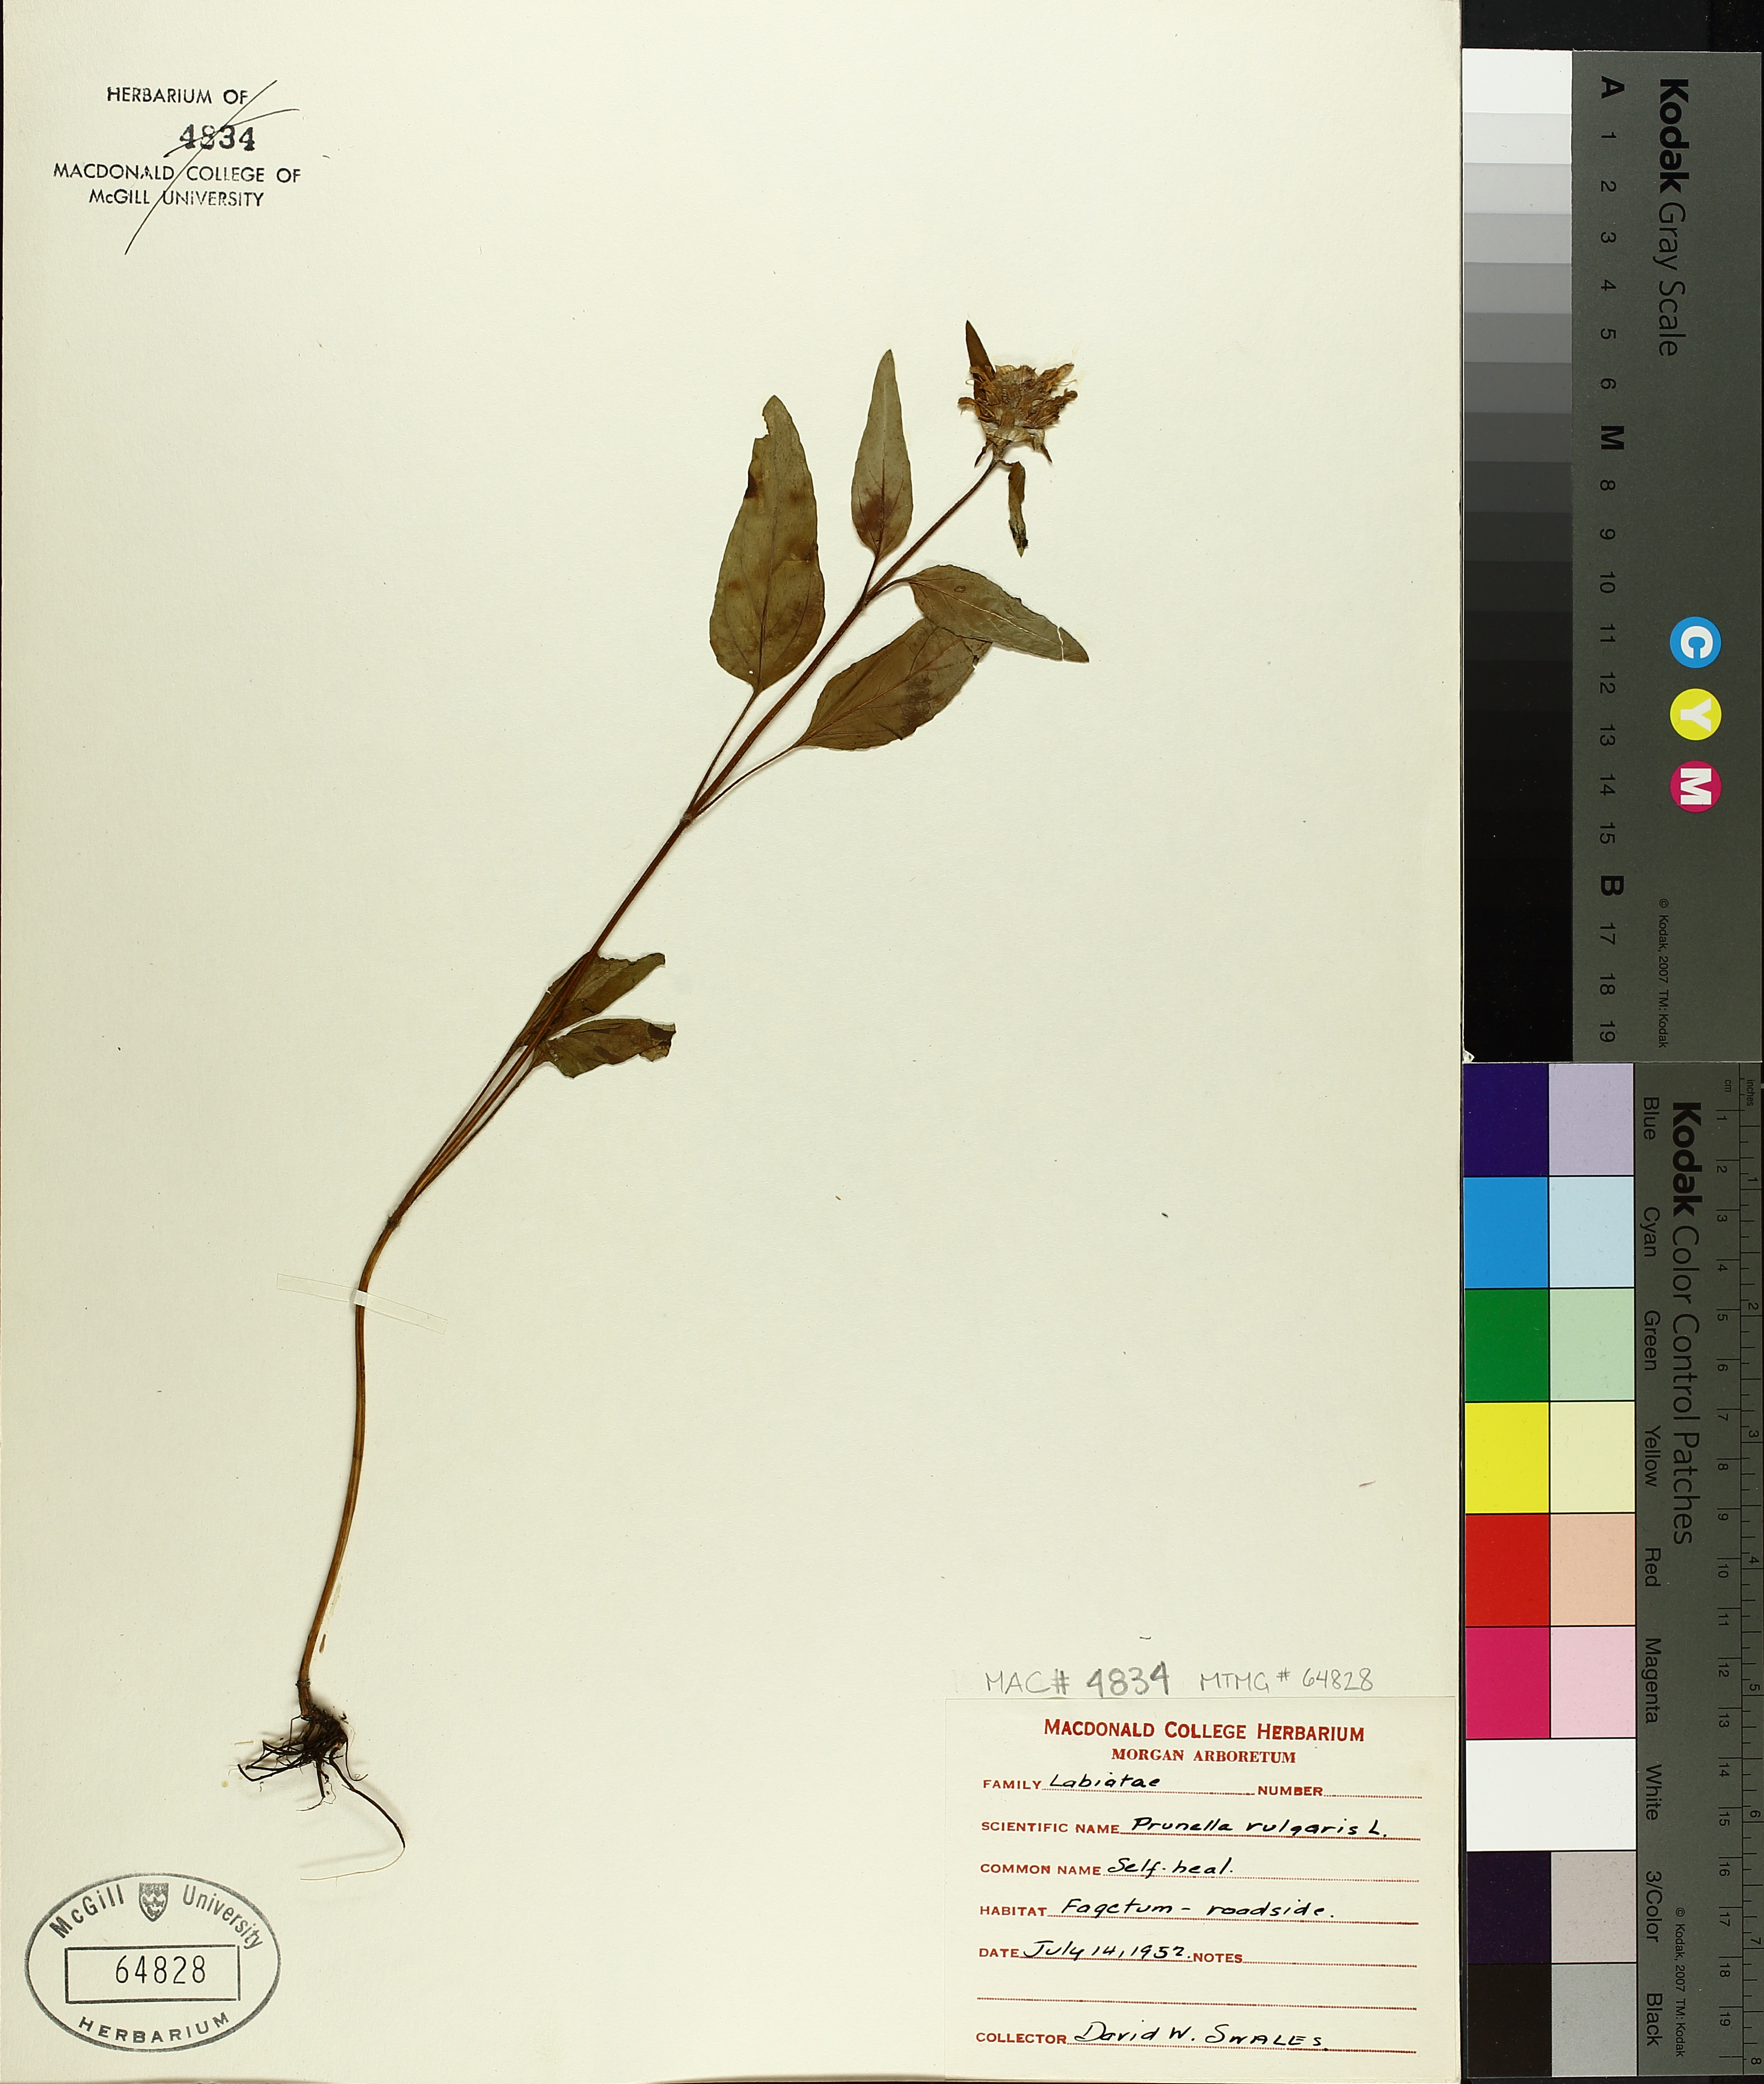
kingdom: Plantae
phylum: Tracheophyta
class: Magnoliopsida
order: Lamiales
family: Lamiaceae
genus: Prunella
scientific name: Prunella vulgaris
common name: Heal-all
